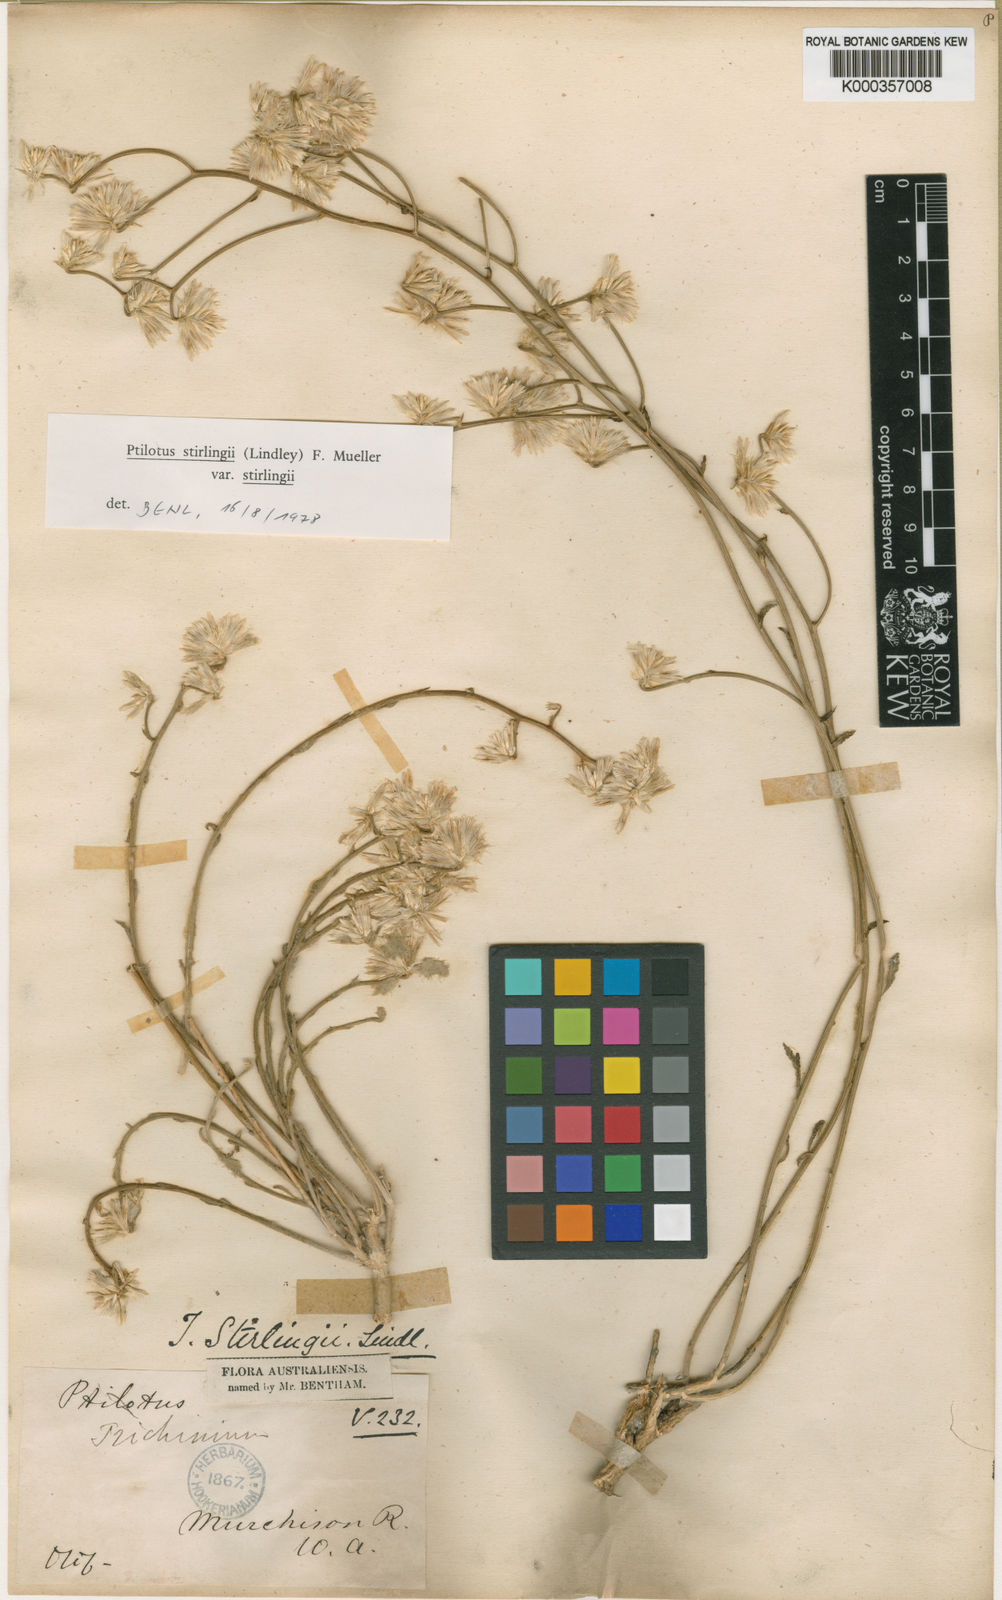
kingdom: Plantae
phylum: Tracheophyta
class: Magnoliopsida
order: Caryophyllales
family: Amaranthaceae
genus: Ptilotus
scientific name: Ptilotus
